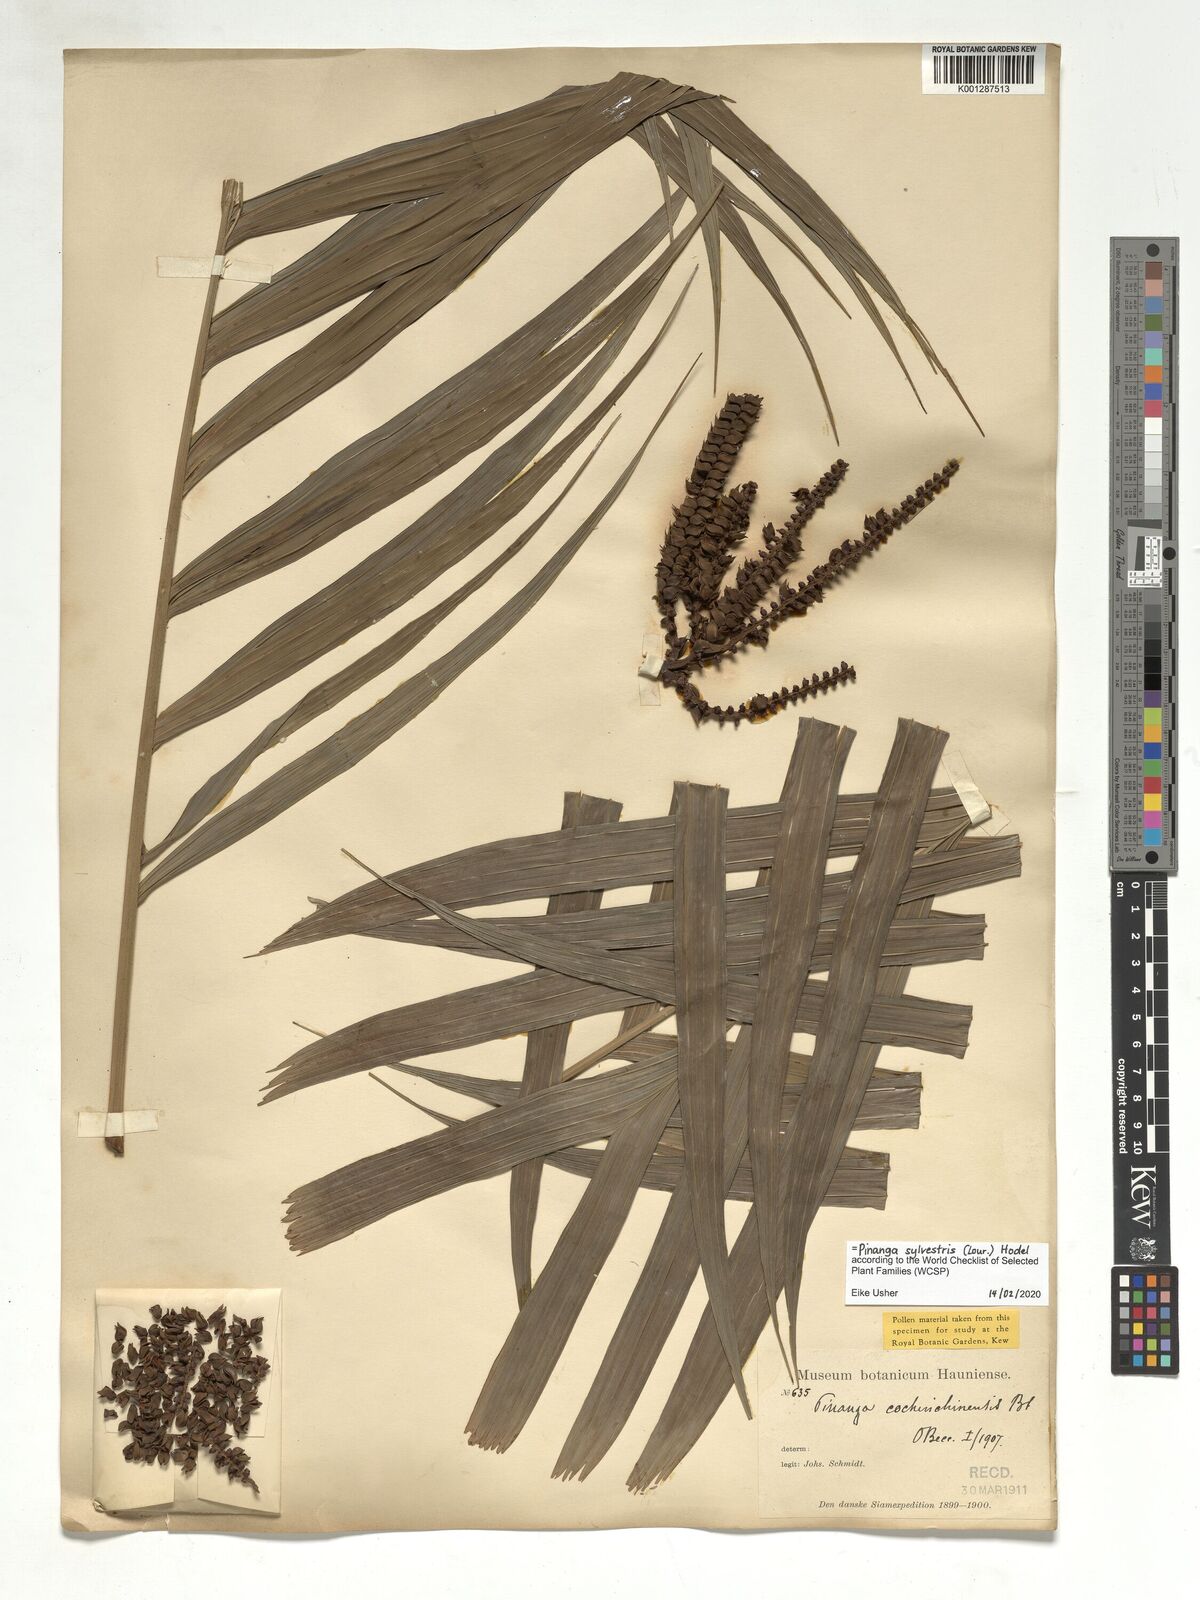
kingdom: Plantae
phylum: Tracheophyta
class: Liliopsida
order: Arecales
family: Arecaceae
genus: Pinanga
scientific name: Pinanga sylvestris
